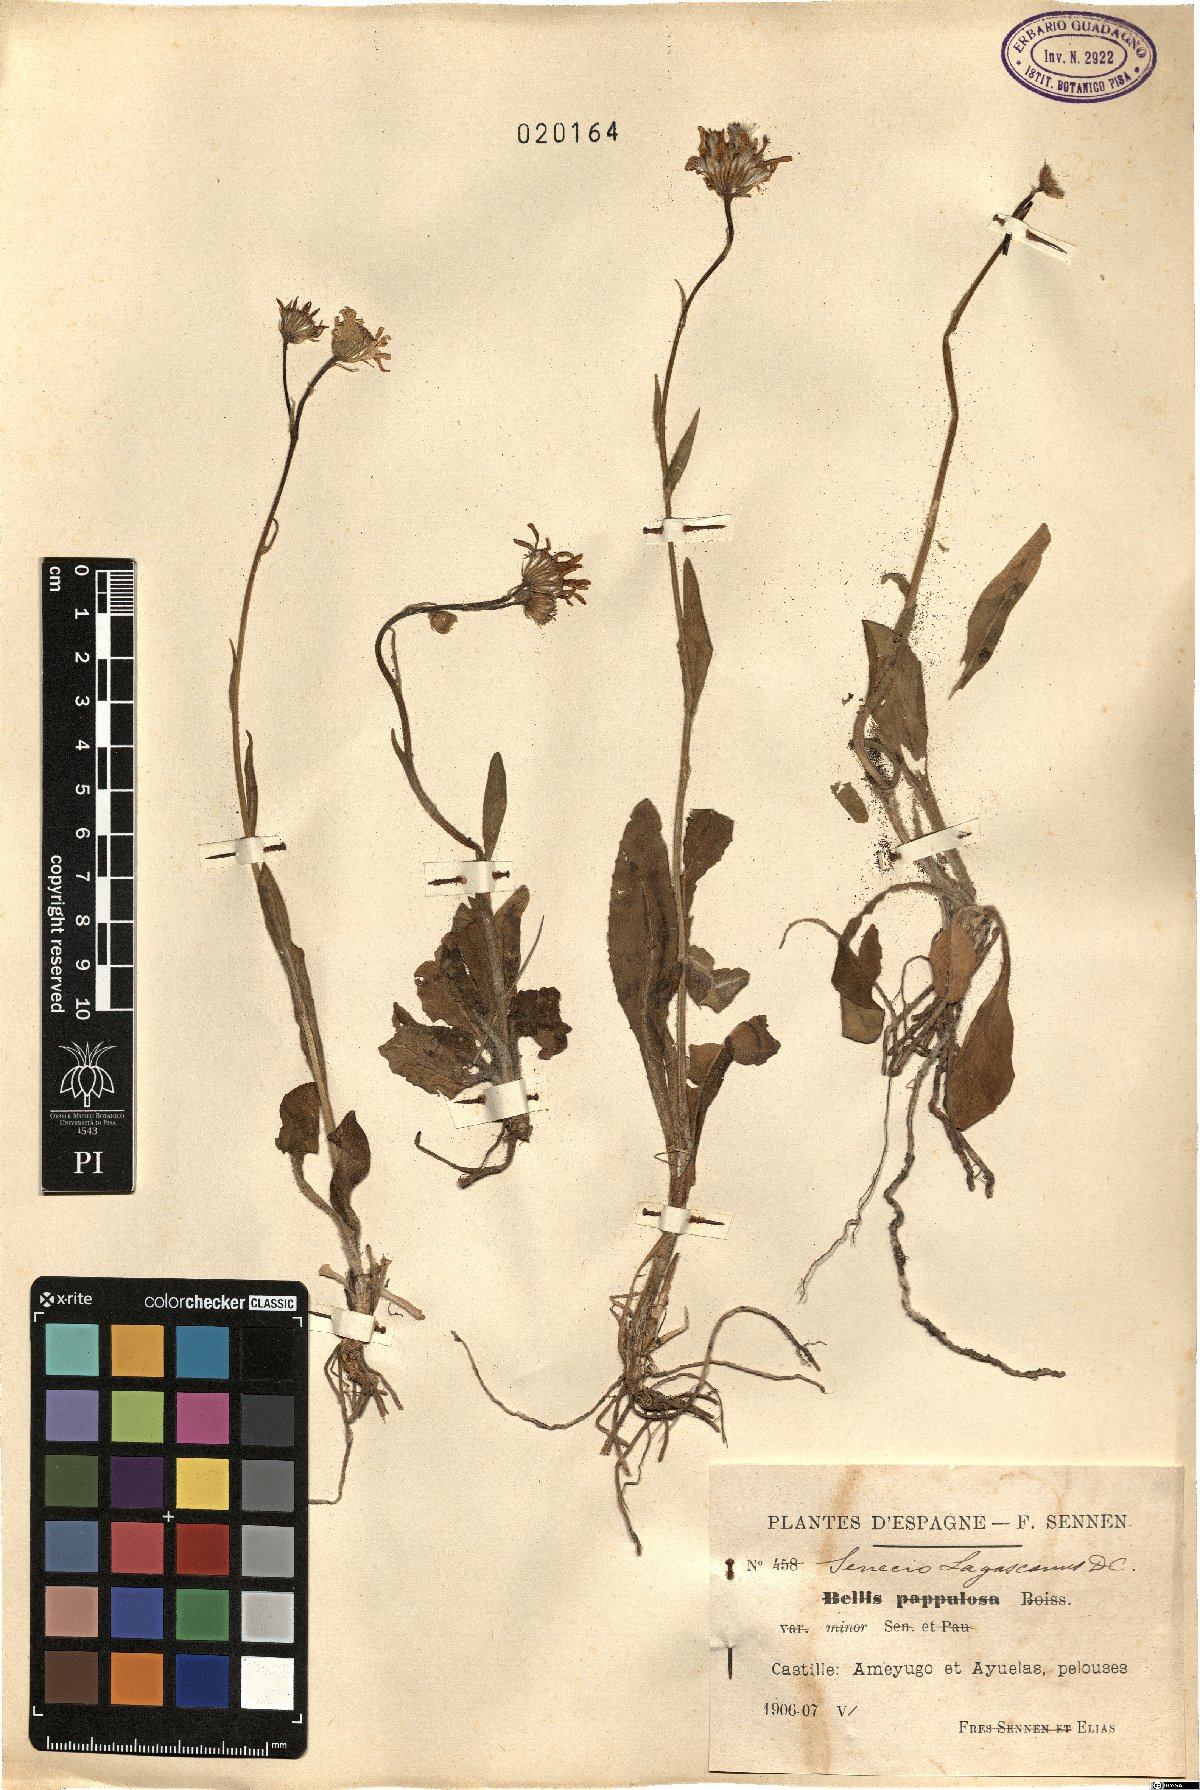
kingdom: Plantae
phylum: Tracheophyta
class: Magnoliopsida
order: Asterales
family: Asteraceae
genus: Senecio
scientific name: Senecio lagascanus
